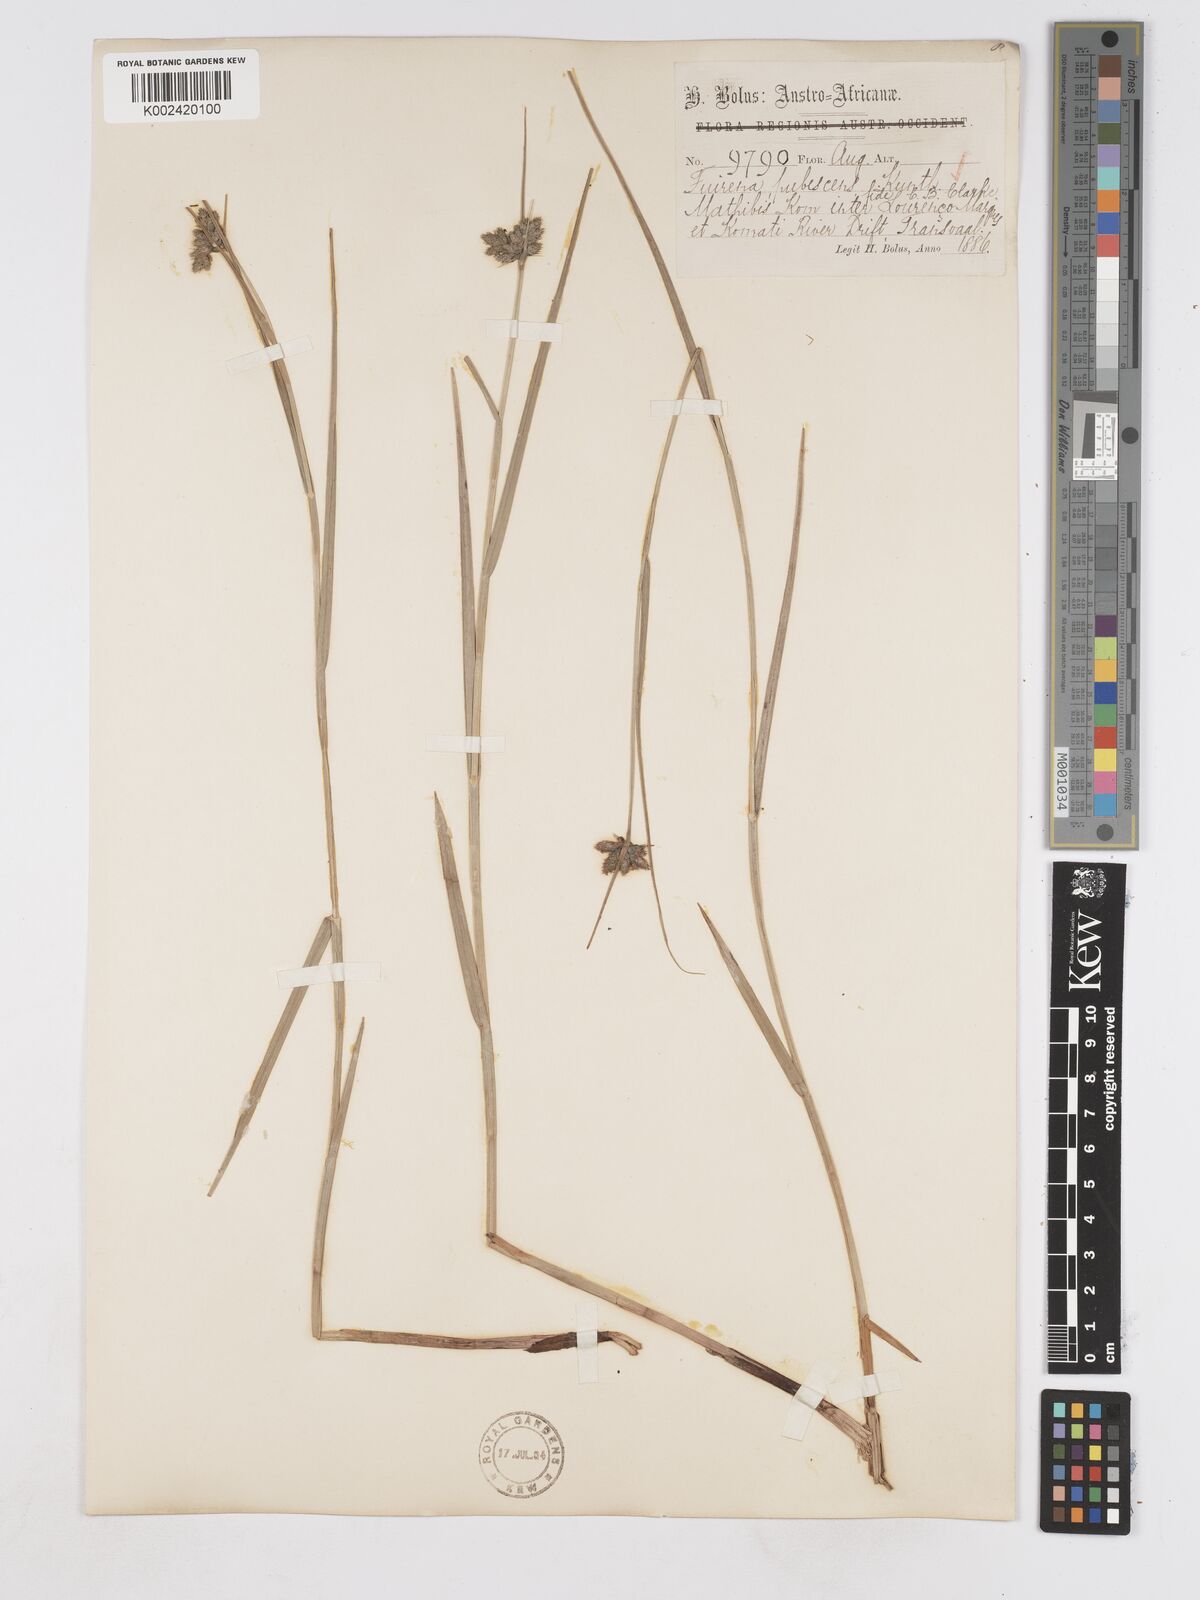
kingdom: Plantae
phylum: Tracheophyta
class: Liliopsida
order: Poales
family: Cyperaceae
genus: Fuirena
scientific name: Fuirena pubescens
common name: Hairy sedge
